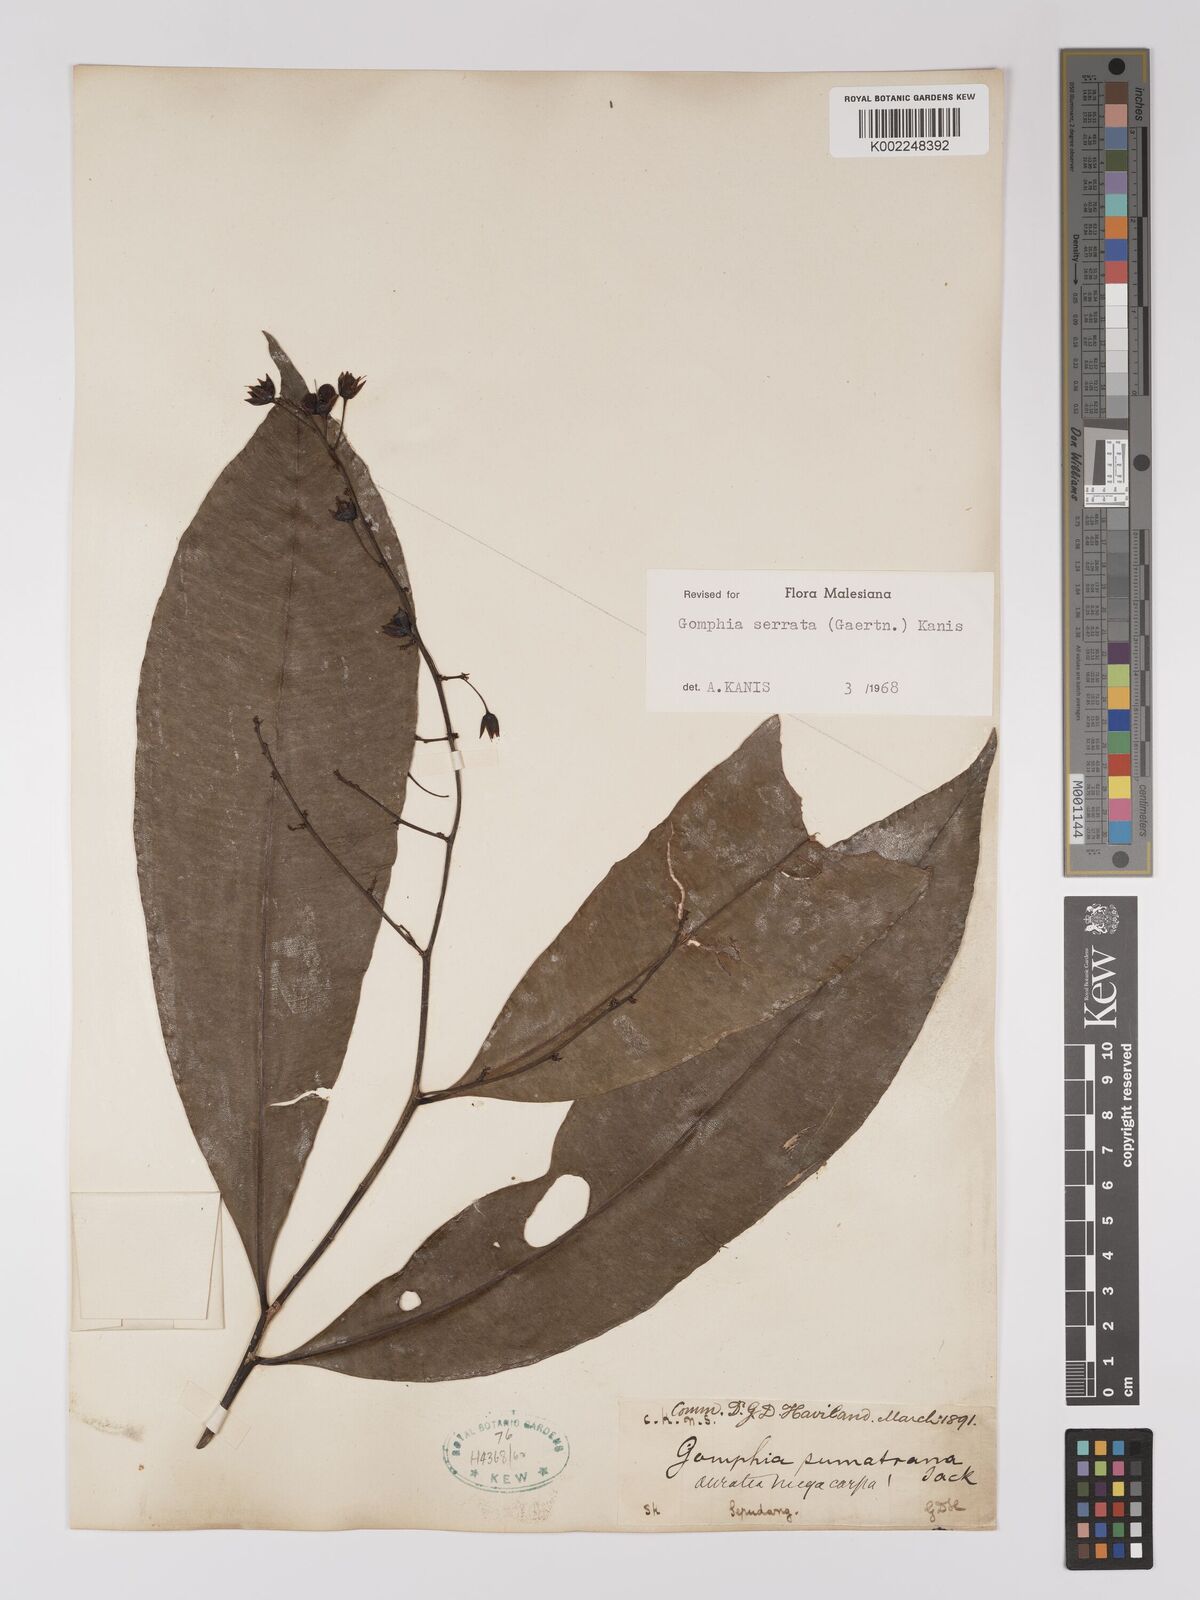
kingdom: Plantae
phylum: Tracheophyta
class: Magnoliopsida
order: Malpighiales
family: Ochnaceae
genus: Gomphia
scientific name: Gomphia serrata
